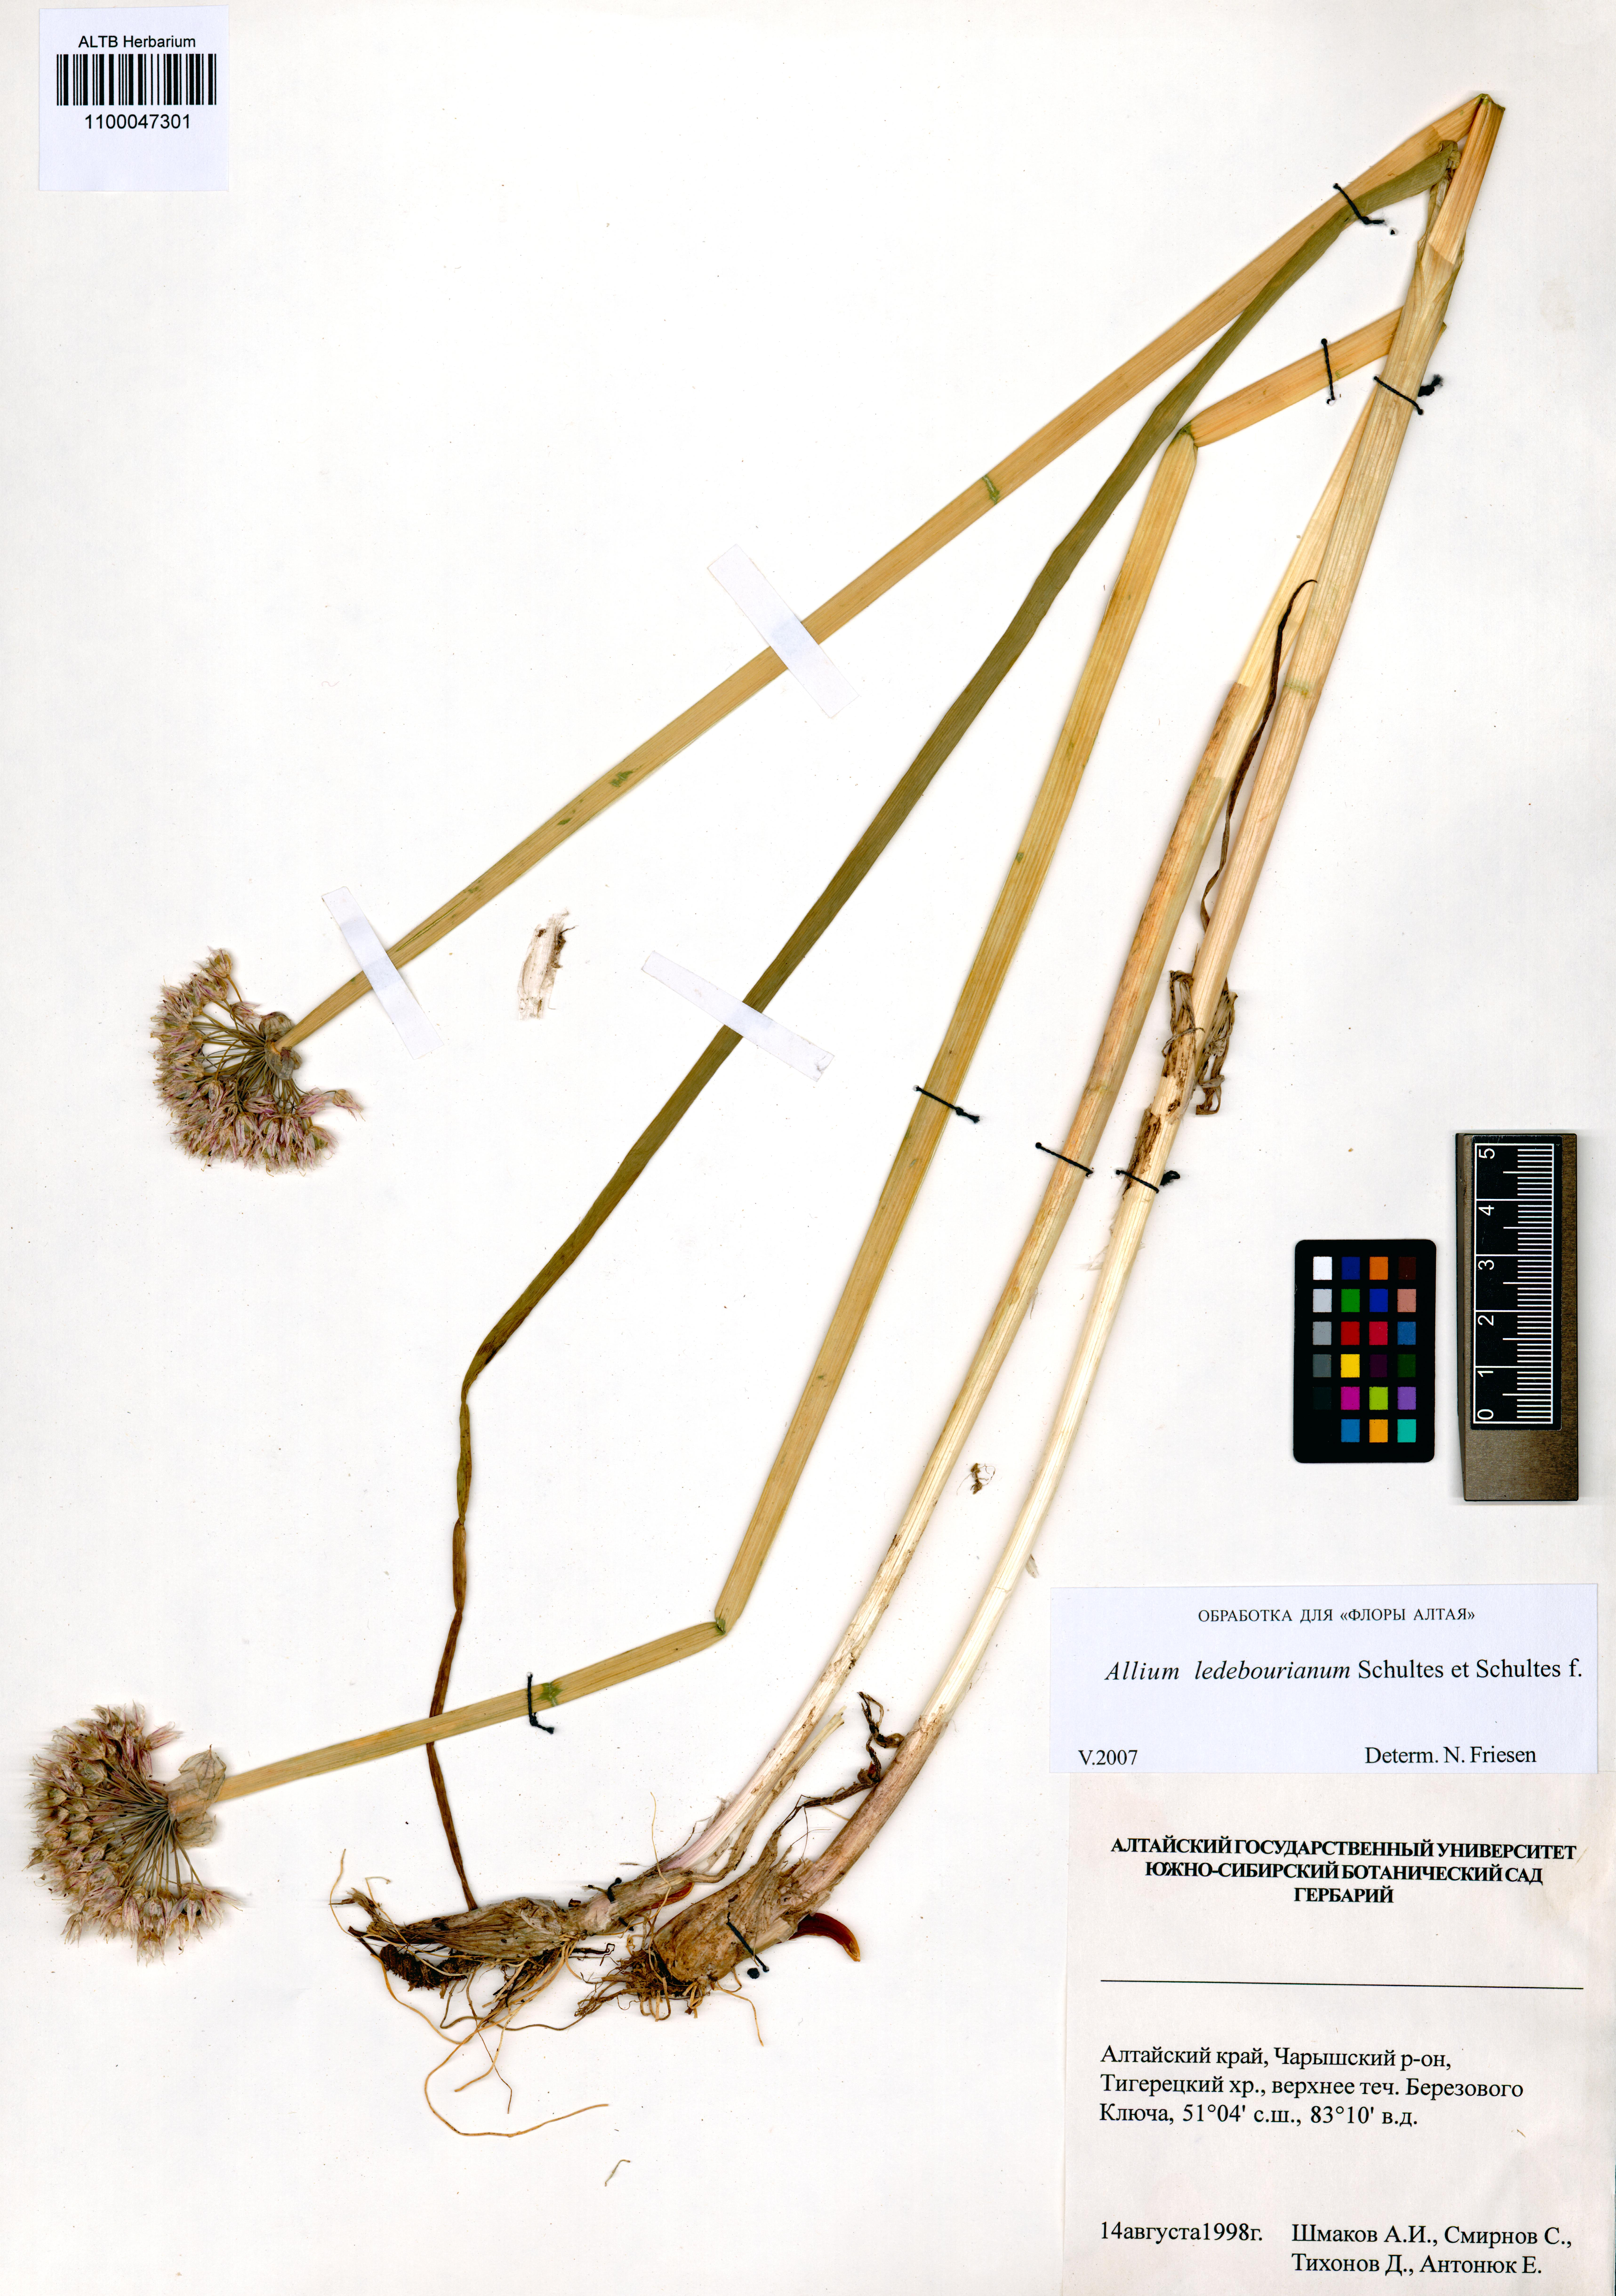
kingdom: Plantae
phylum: Tracheophyta
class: Liliopsida
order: Asparagales
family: Amaryllidaceae
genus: Allium
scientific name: Allium ledebourianum
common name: Ledebour chive
